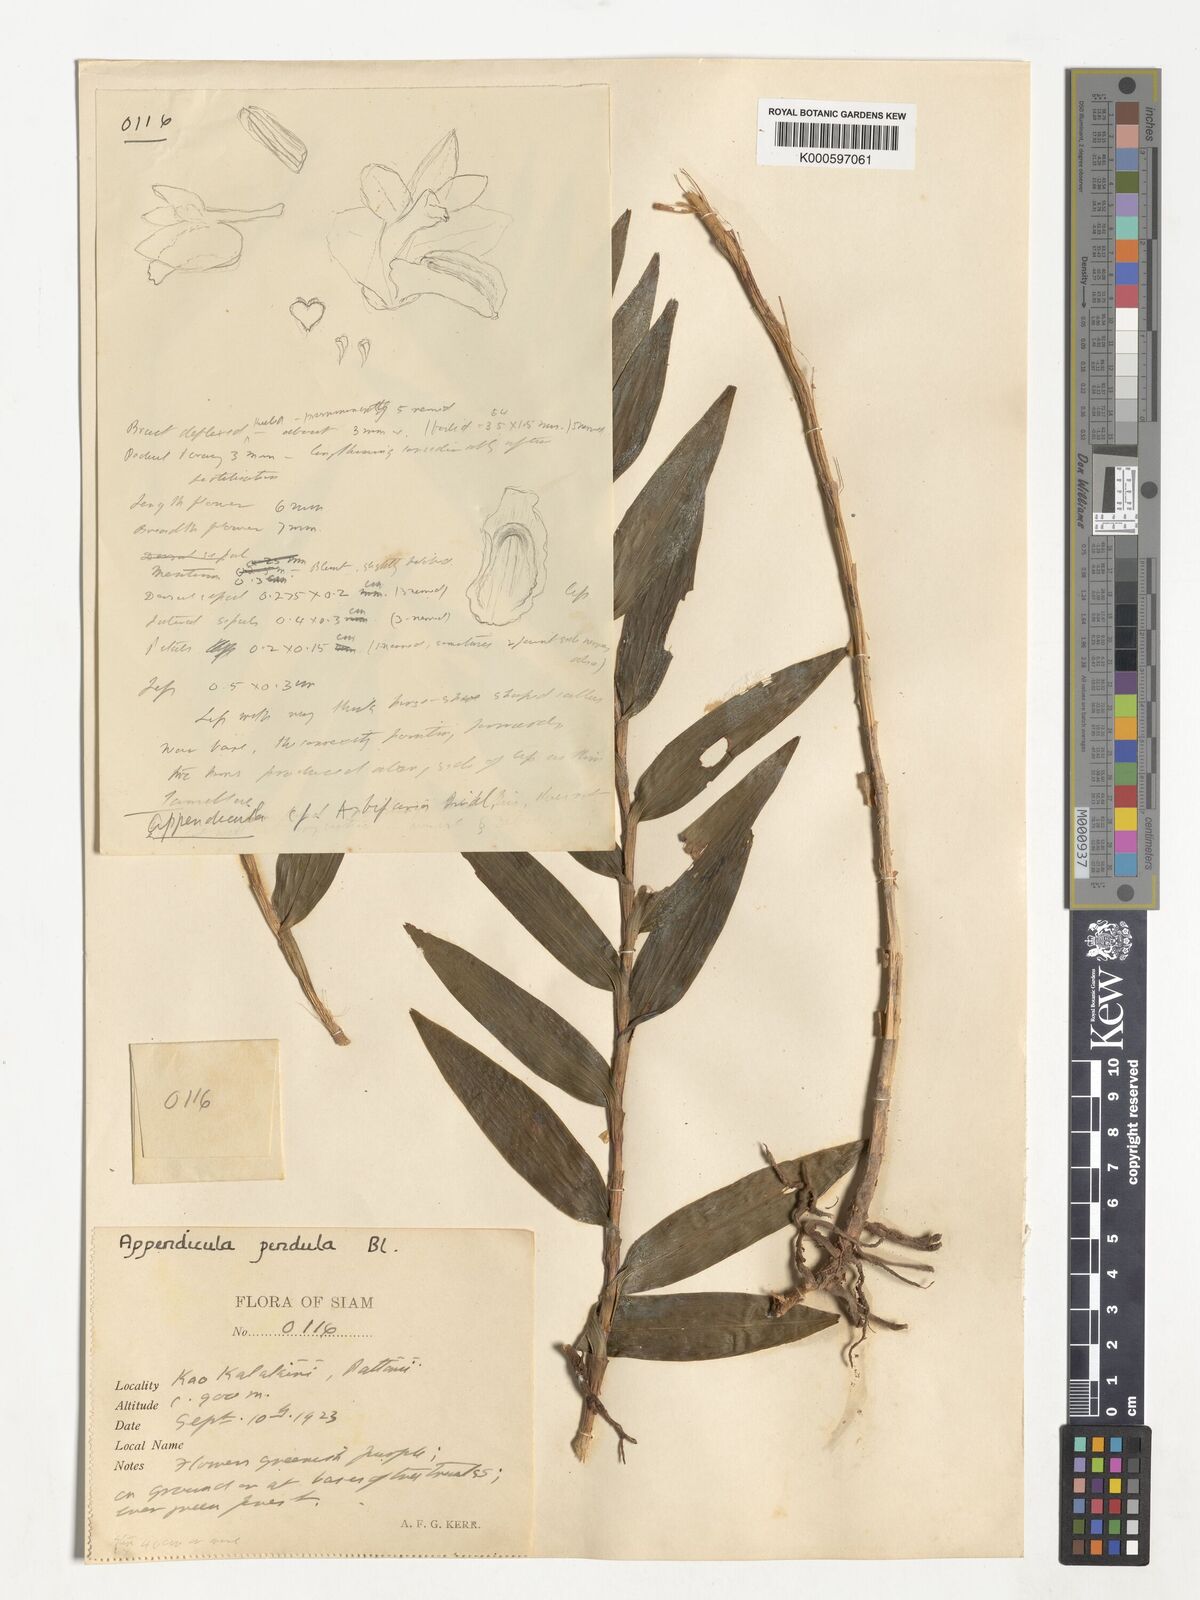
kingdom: Plantae
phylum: Tracheophyta
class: Liliopsida
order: Asparagales
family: Orchidaceae
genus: Appendicula
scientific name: Appendicula pendula
